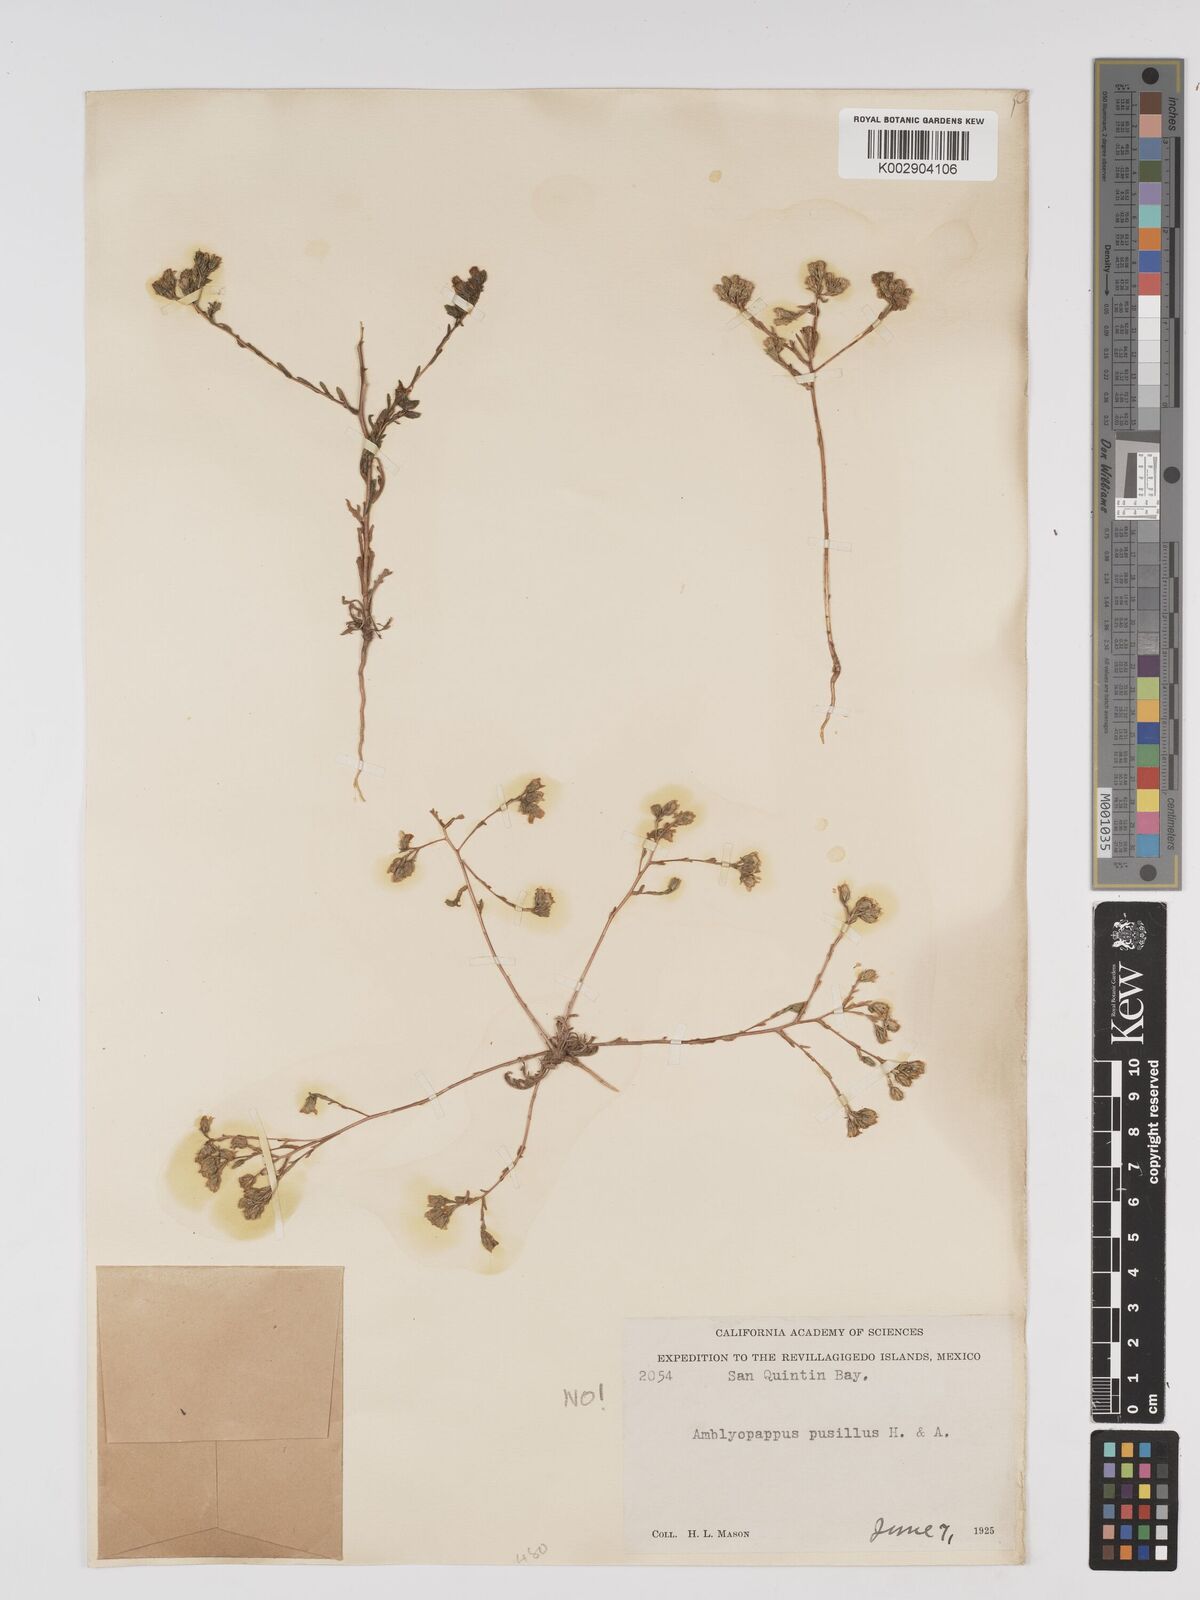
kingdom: Plantae
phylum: Tracheophyta
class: Magnoliopsida
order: Asterales
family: Asteraceae
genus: Amblyopappus
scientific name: Amblyopappus pusillus
